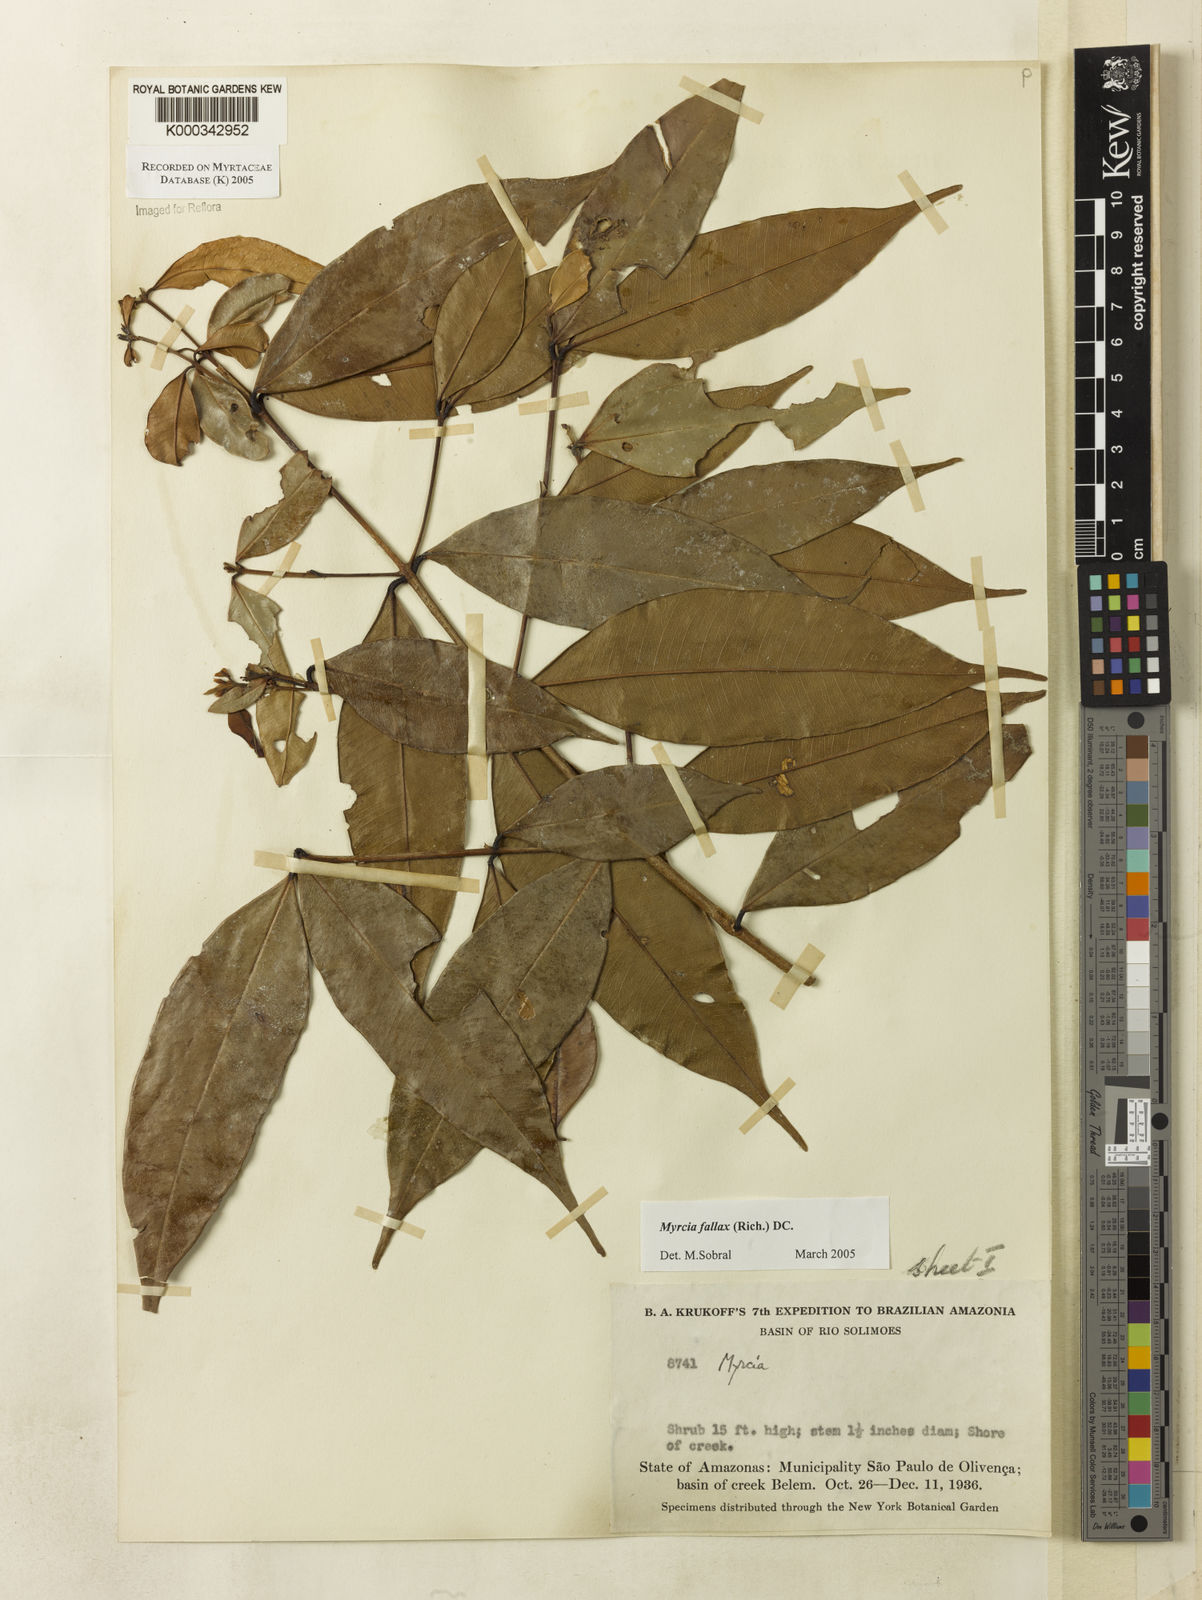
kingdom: Plantae
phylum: Tracheophyta
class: Magnoliopsida
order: Myrtales
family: Myrtaceae
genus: Myrcia
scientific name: Myrcia splendens
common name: Surinam cherry
